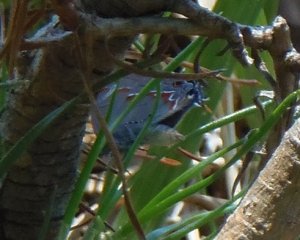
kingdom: Animalia
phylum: Arthropoda
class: Insecta
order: Lepidoptera
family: Lycaenidae
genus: Calycopis
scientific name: Calycopis cecrops
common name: Red-banded Hairstreak
